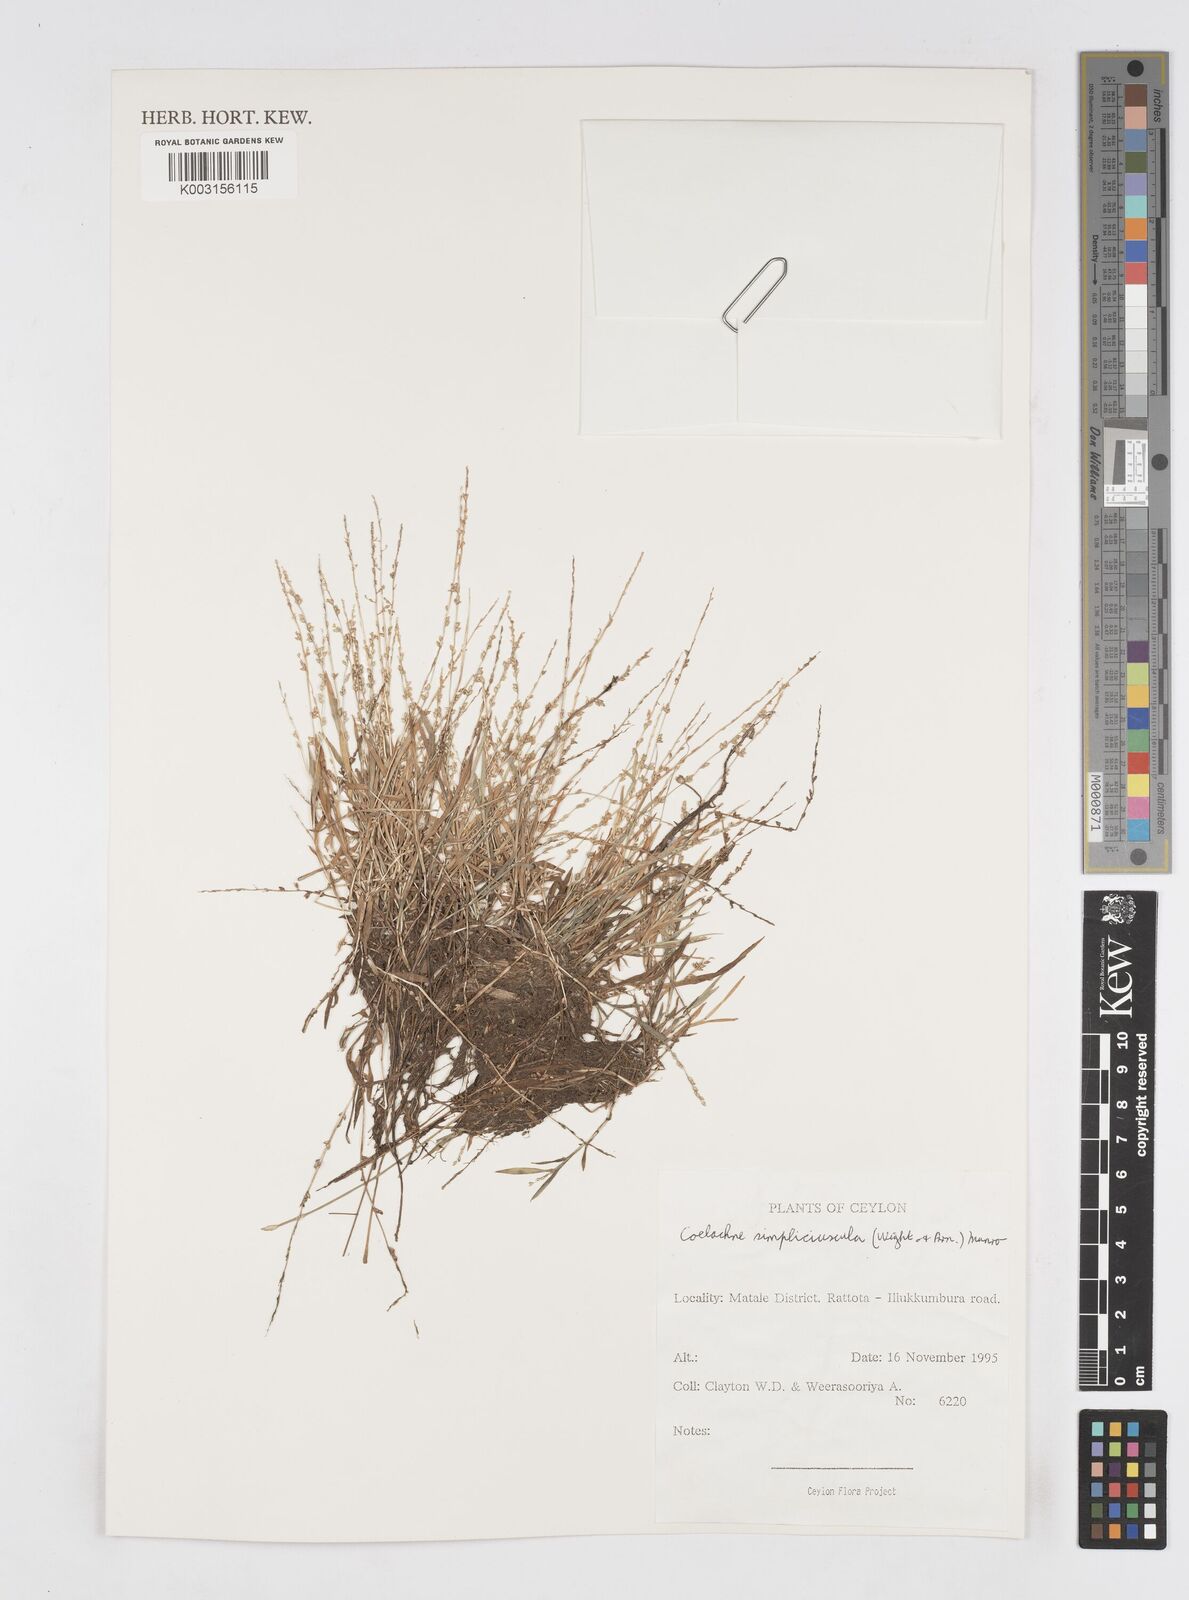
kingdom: Plantae
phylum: Tracheophyta
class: Liliopsida
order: Poales
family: Poaceae
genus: Coelachne
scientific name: Coelachne simpliciuscula
